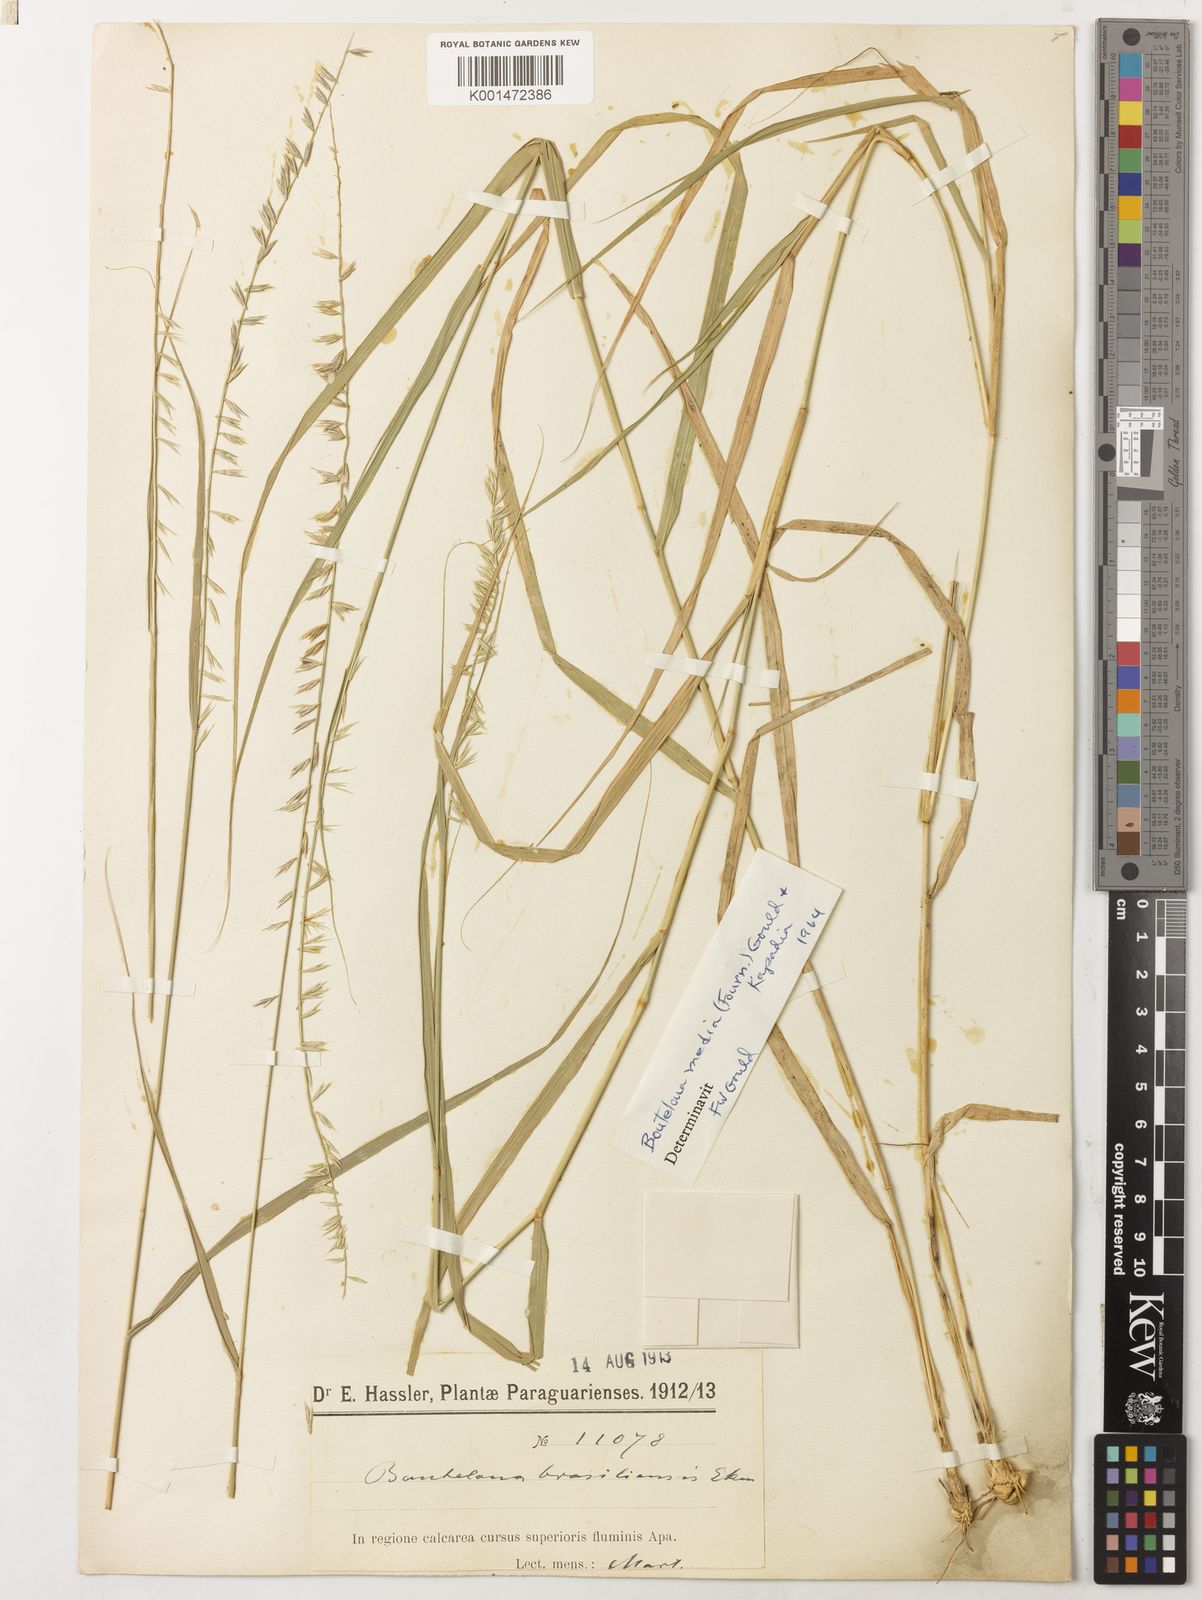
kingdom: Plantae
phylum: Tracheophyta
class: Liliopsida
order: Poales
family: Poaceae
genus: Bouteloua
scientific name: Bouteloua media
